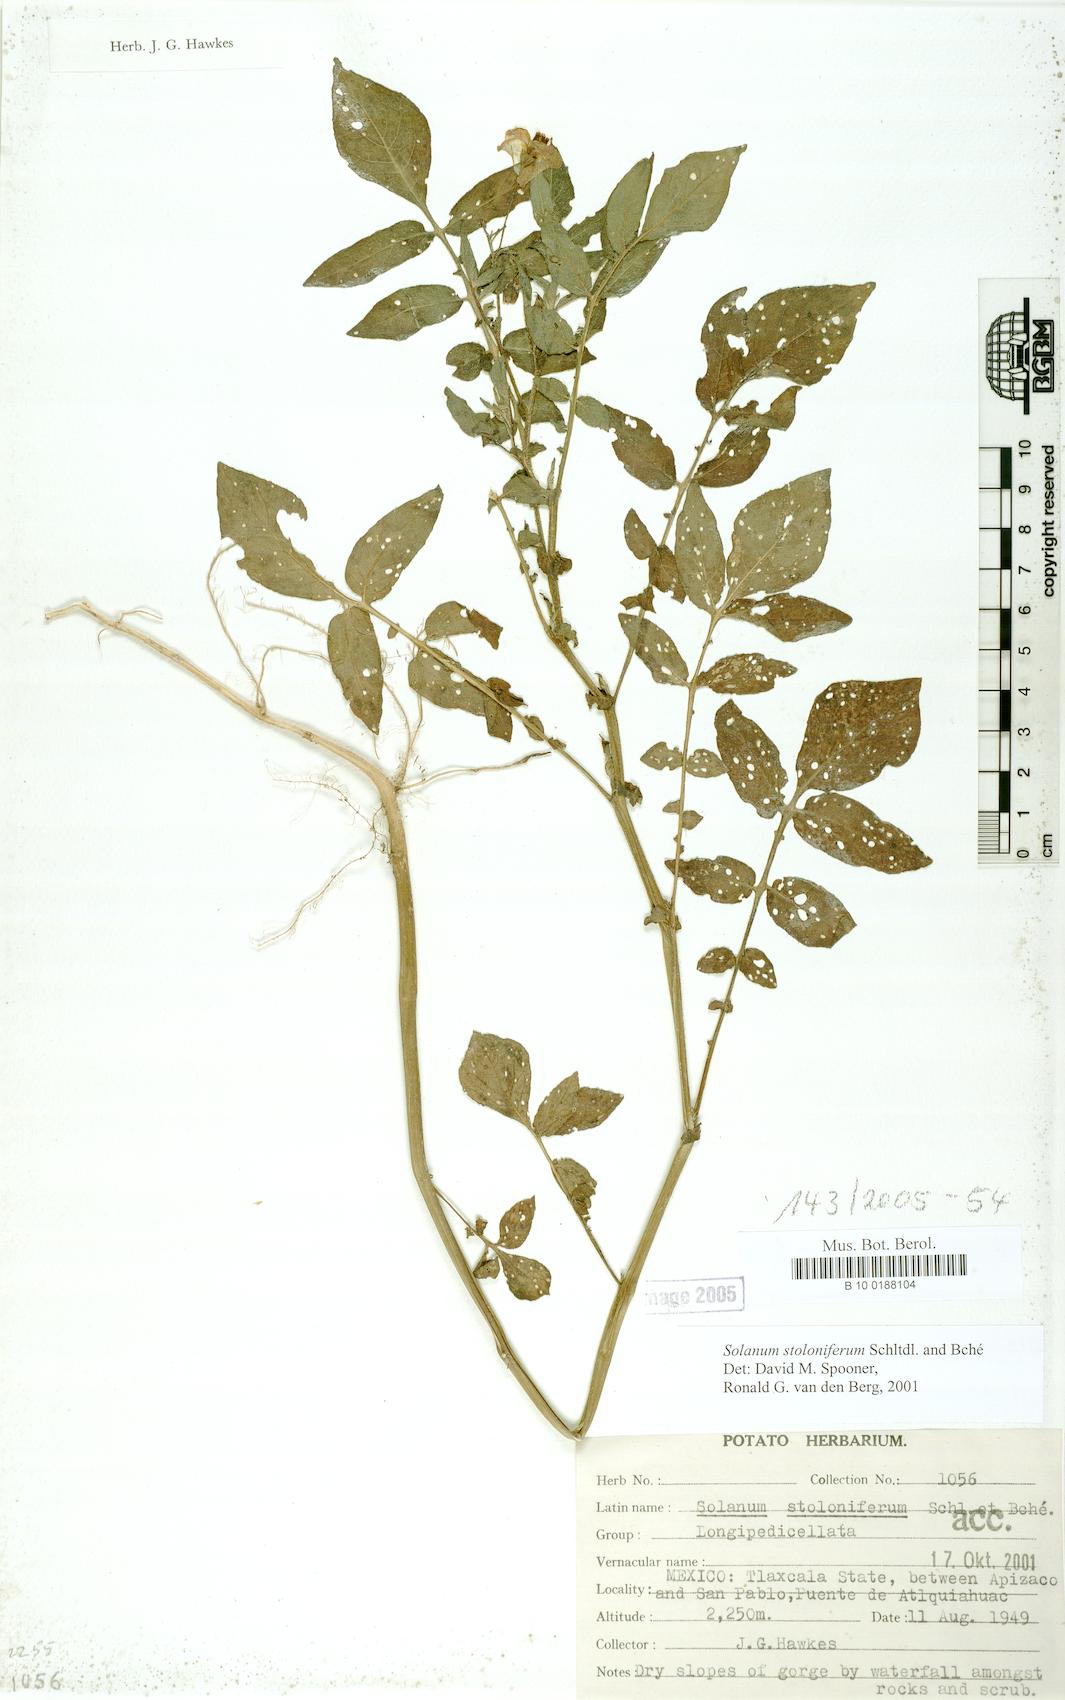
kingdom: Plantae
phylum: Tracheophyta
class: Magnoliopsida
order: Solanales
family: Solanaceae
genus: Solanum
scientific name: Solanum stoloniferum
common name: Fendler's nighshade
